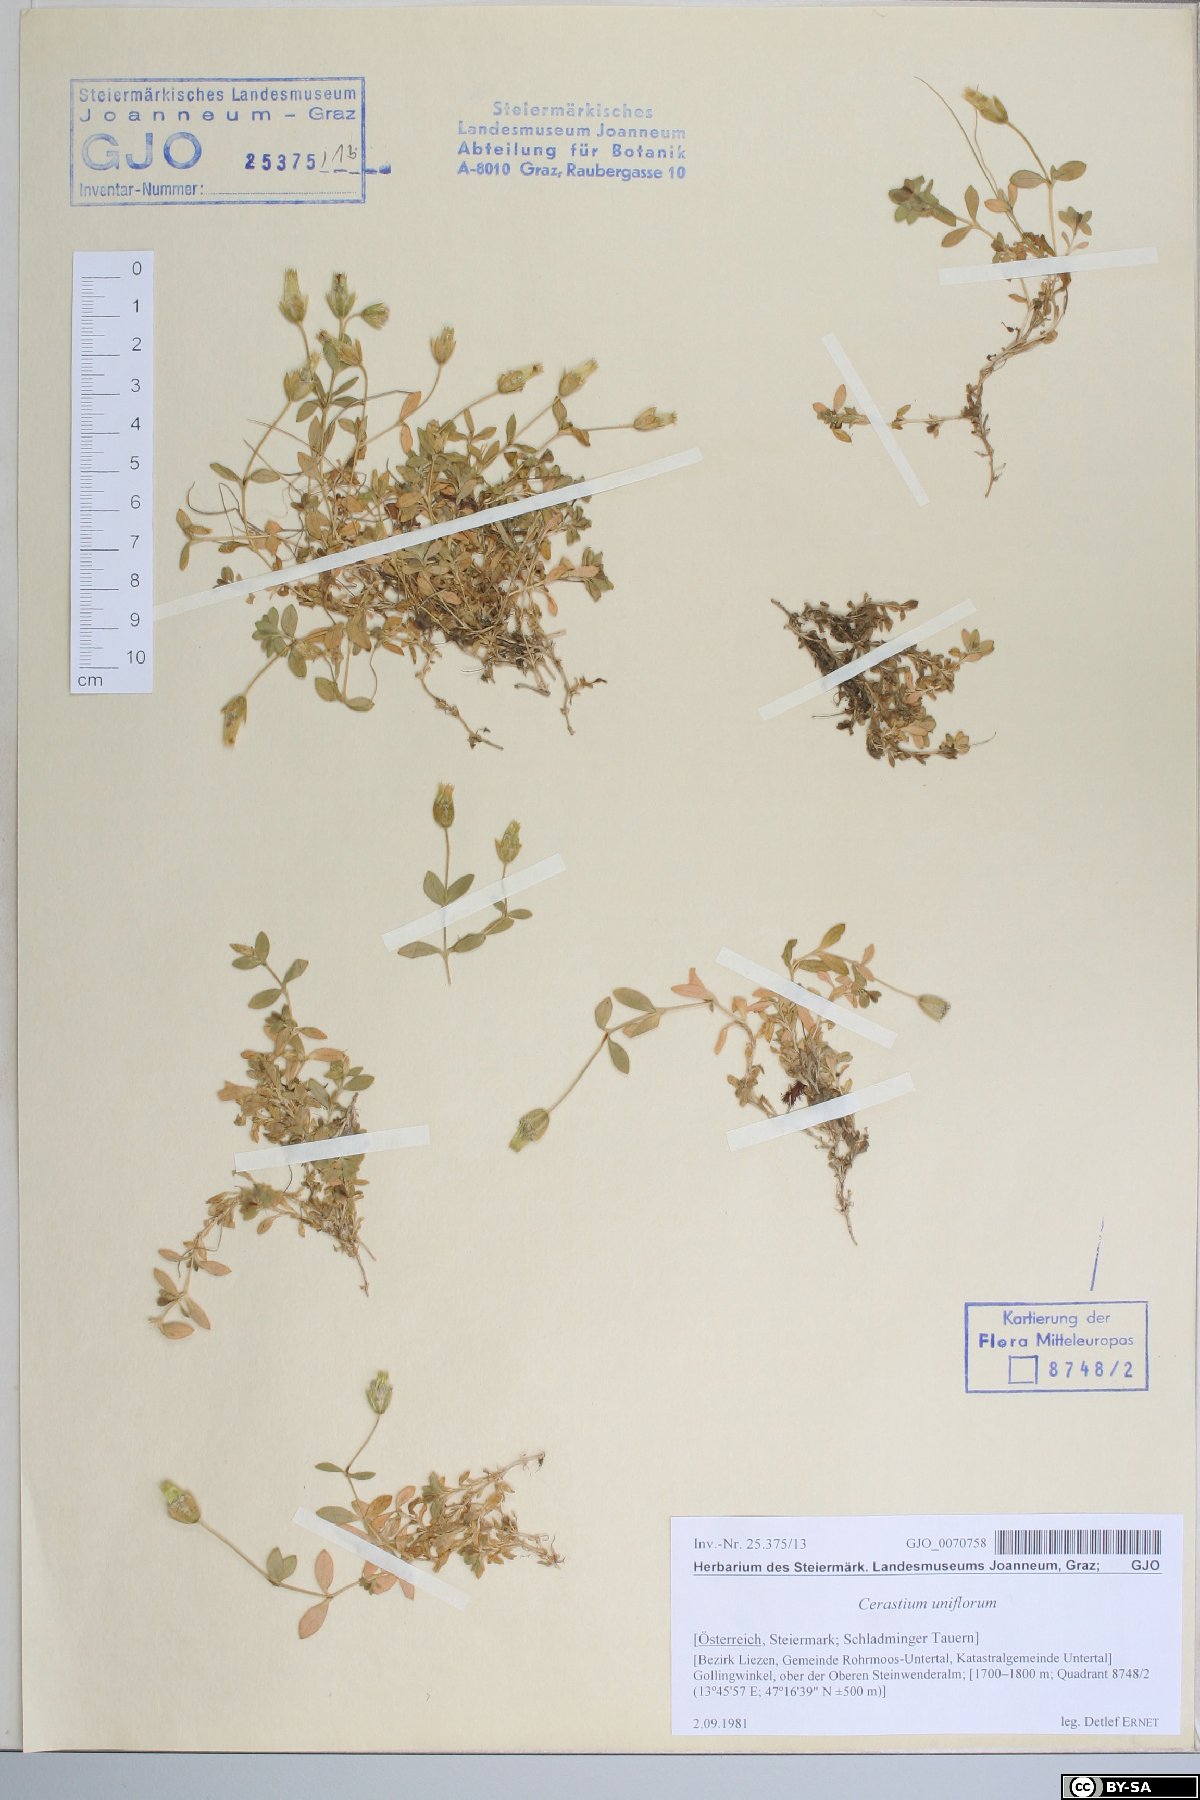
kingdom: Plantae
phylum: Tracheophyta
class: Magnoliopsida
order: Caryophyllales
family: Caryophyllaceae
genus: Cerastium
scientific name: Cerastium uniflorum
